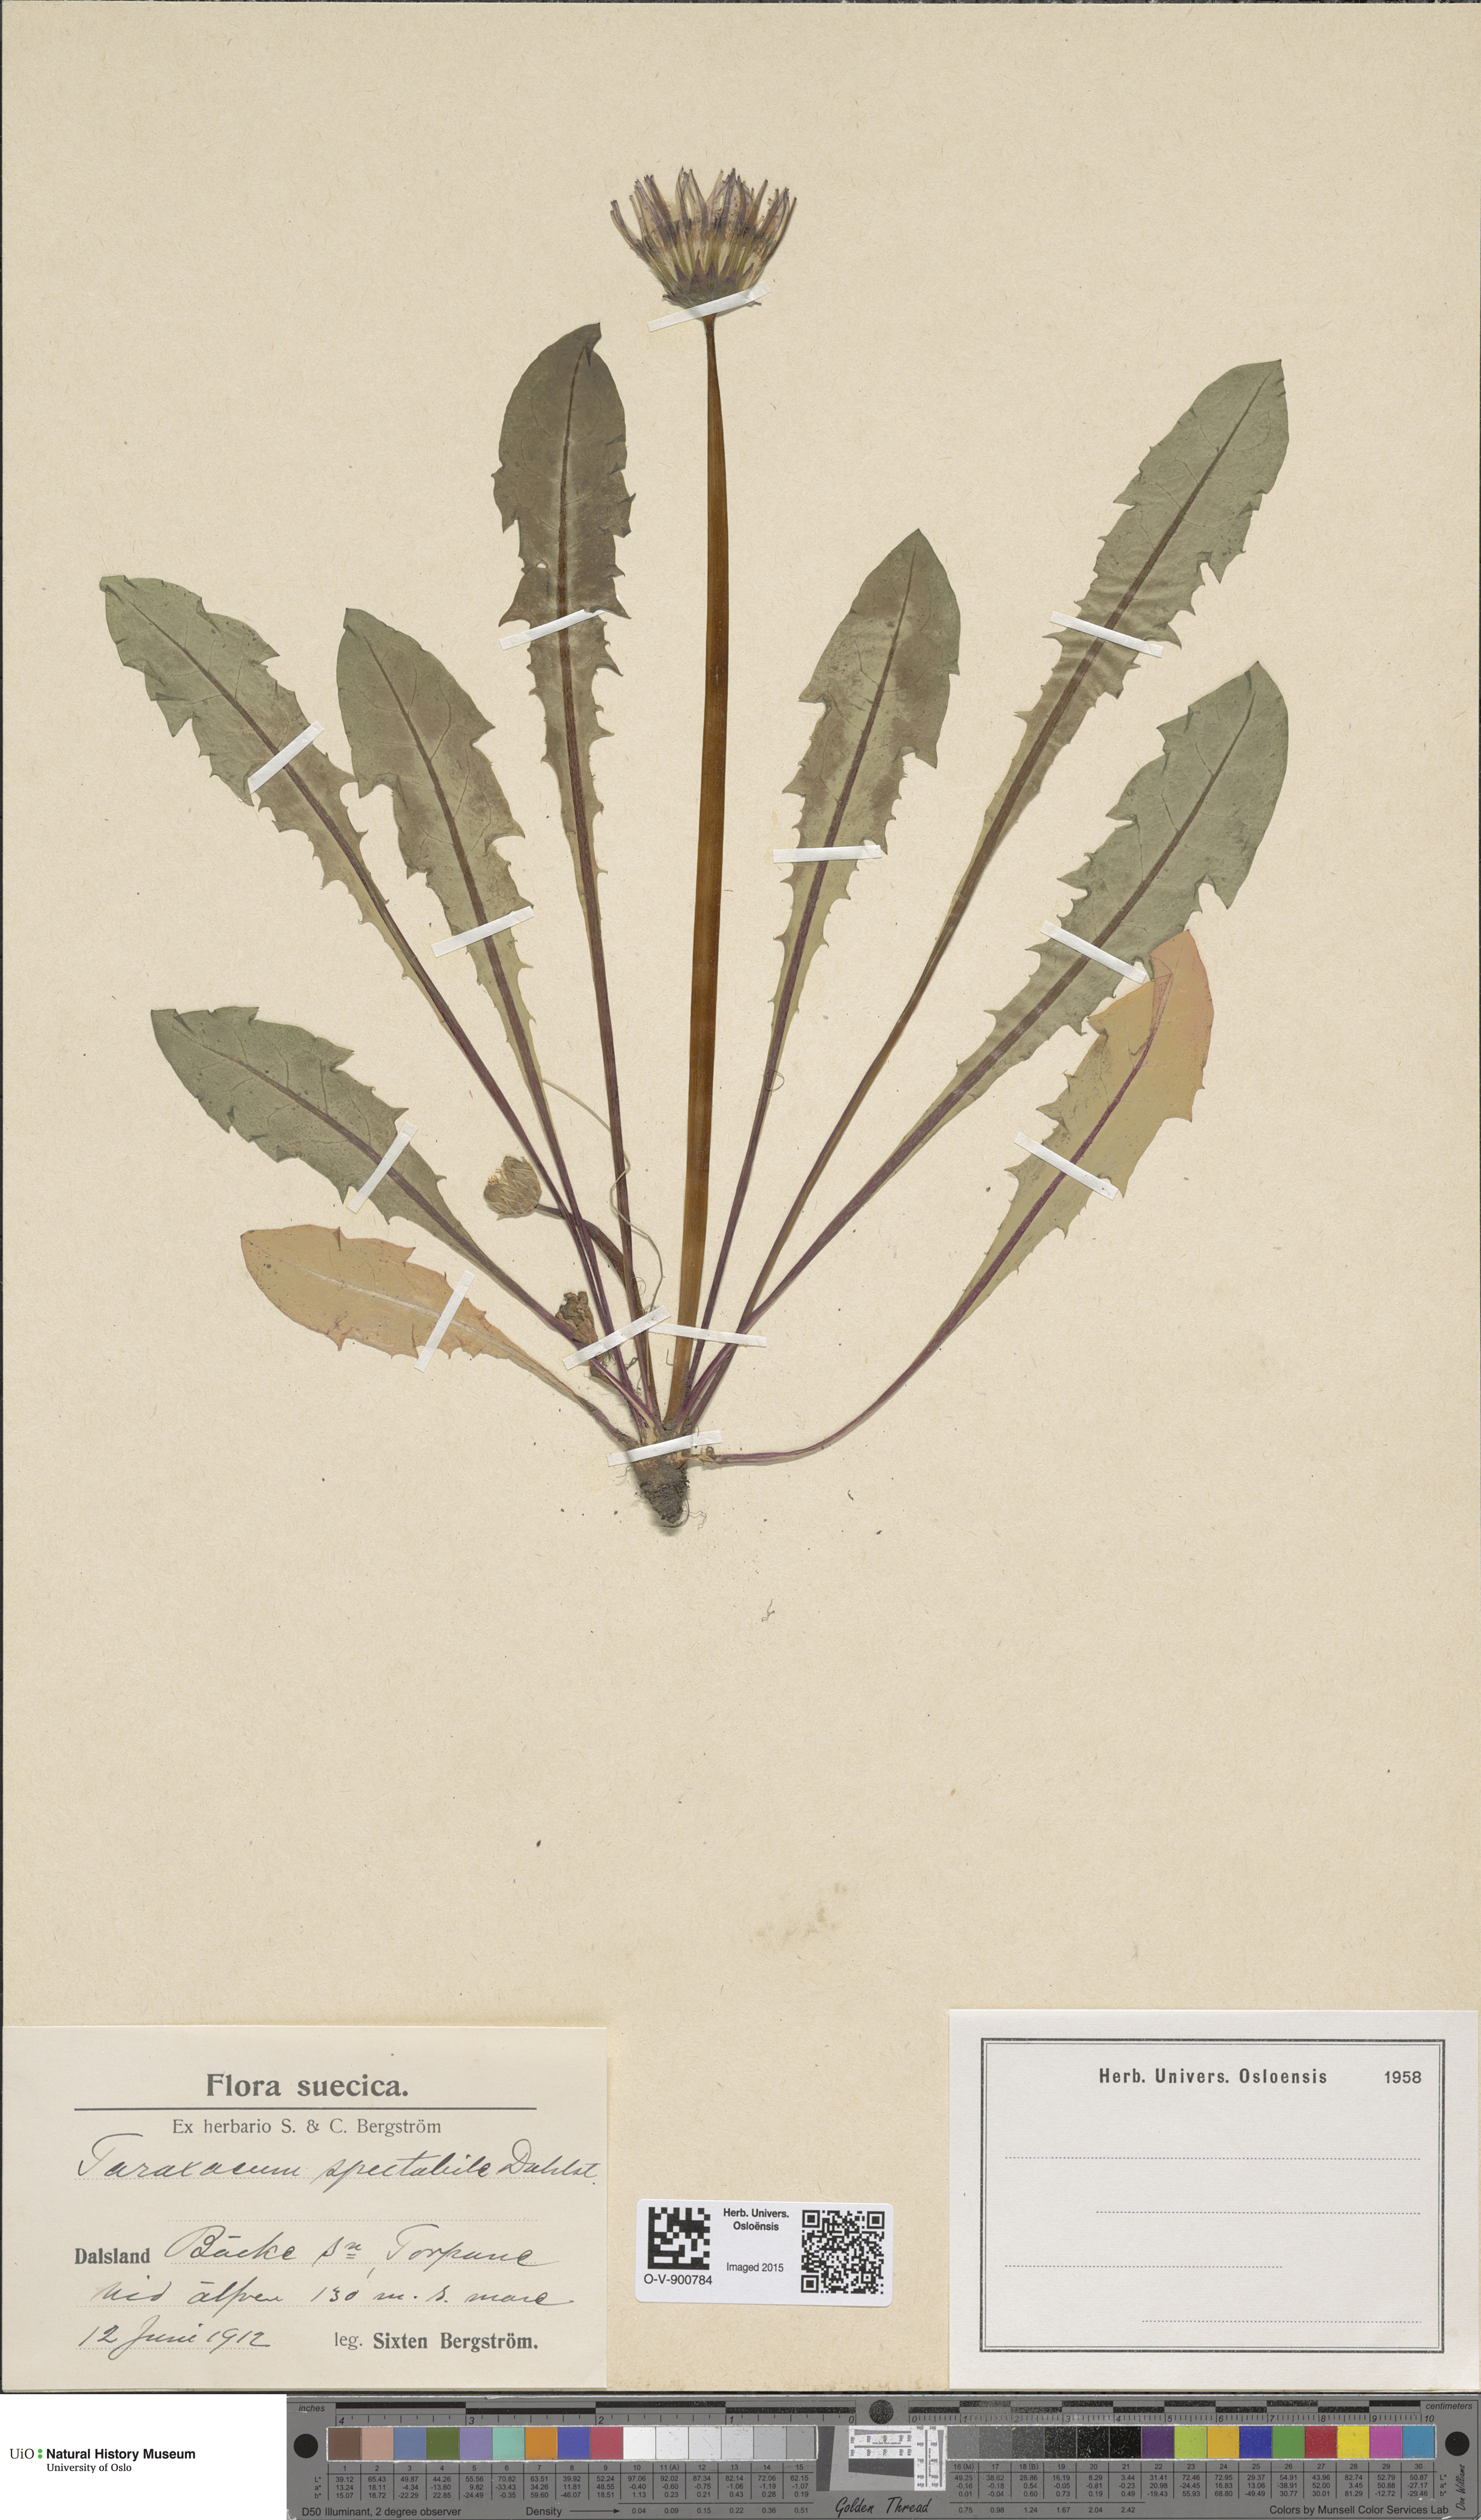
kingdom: Plantae
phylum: Tracheophyta
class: Magnoliopsida
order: Asterales
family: Asteraceae
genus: Taraxacum
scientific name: Taraxacum spectabile
